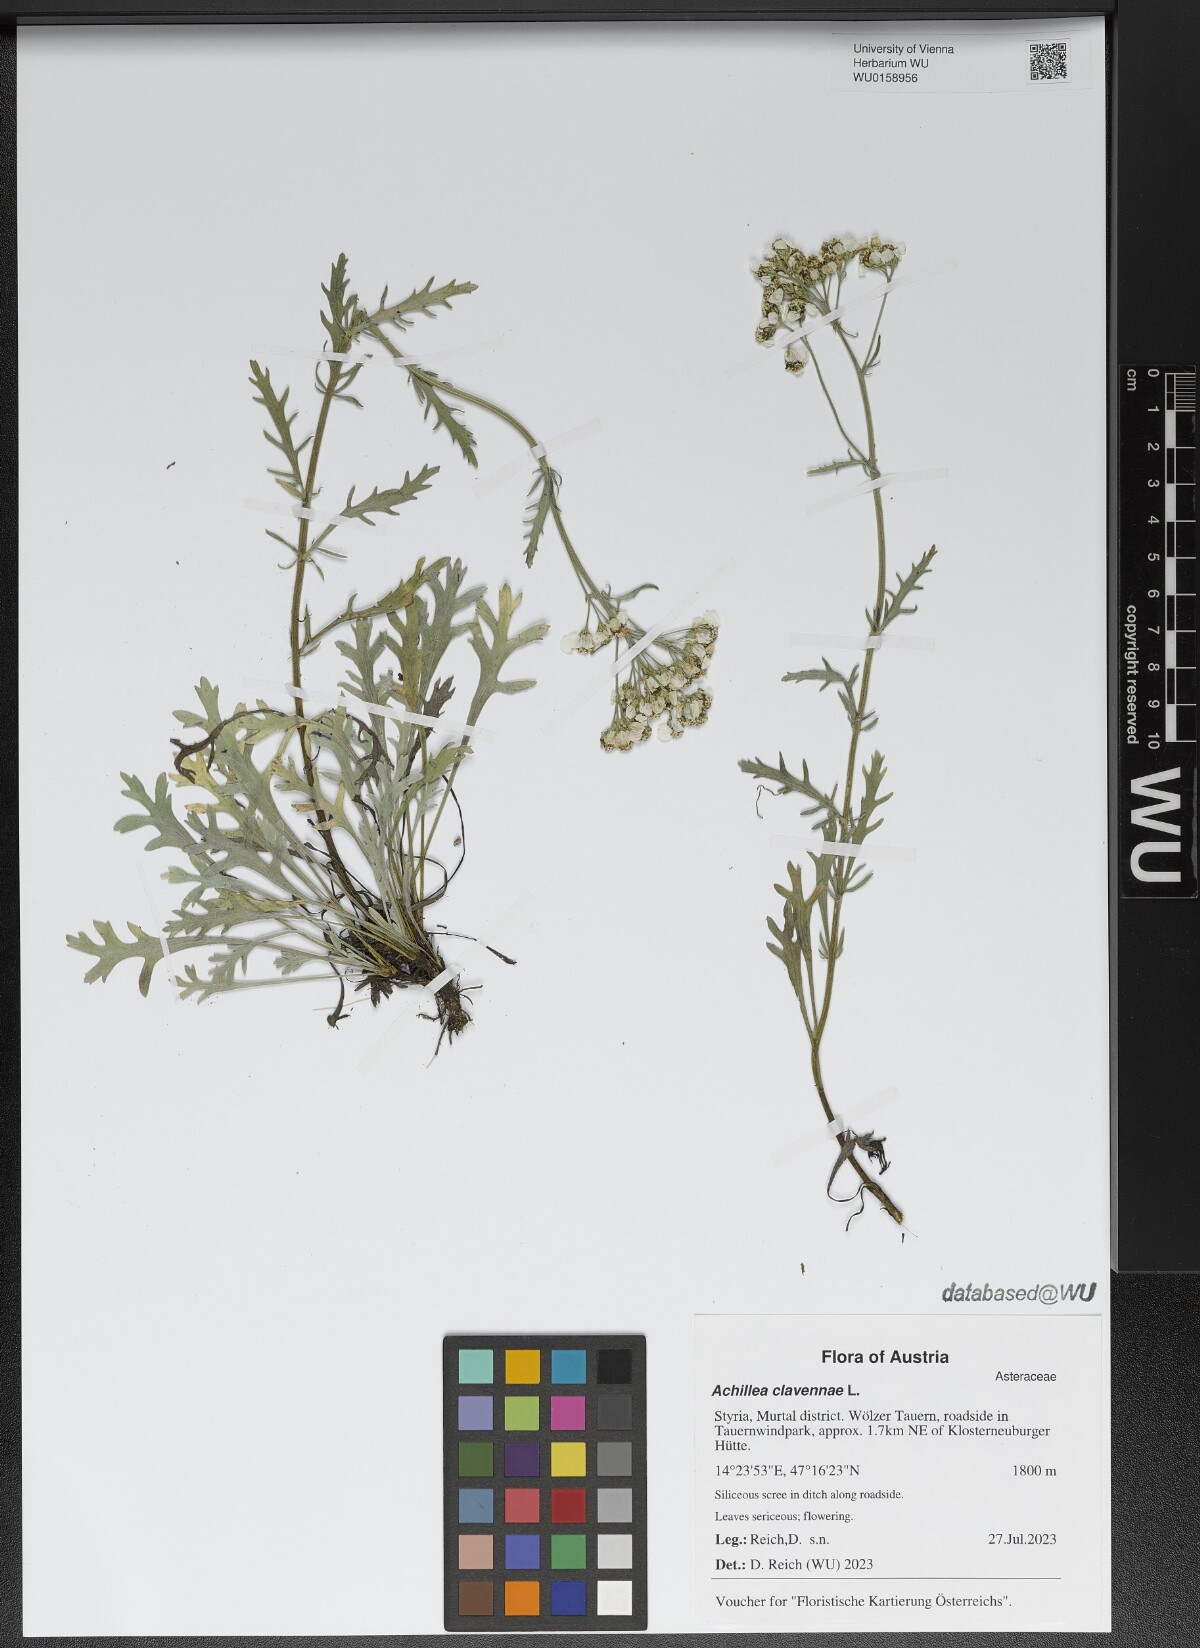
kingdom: Plantae
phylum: Tracheophyta
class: Magnoliopsida
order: Asterales
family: Asteraceae
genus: Achillea
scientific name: Achillea clavennae
